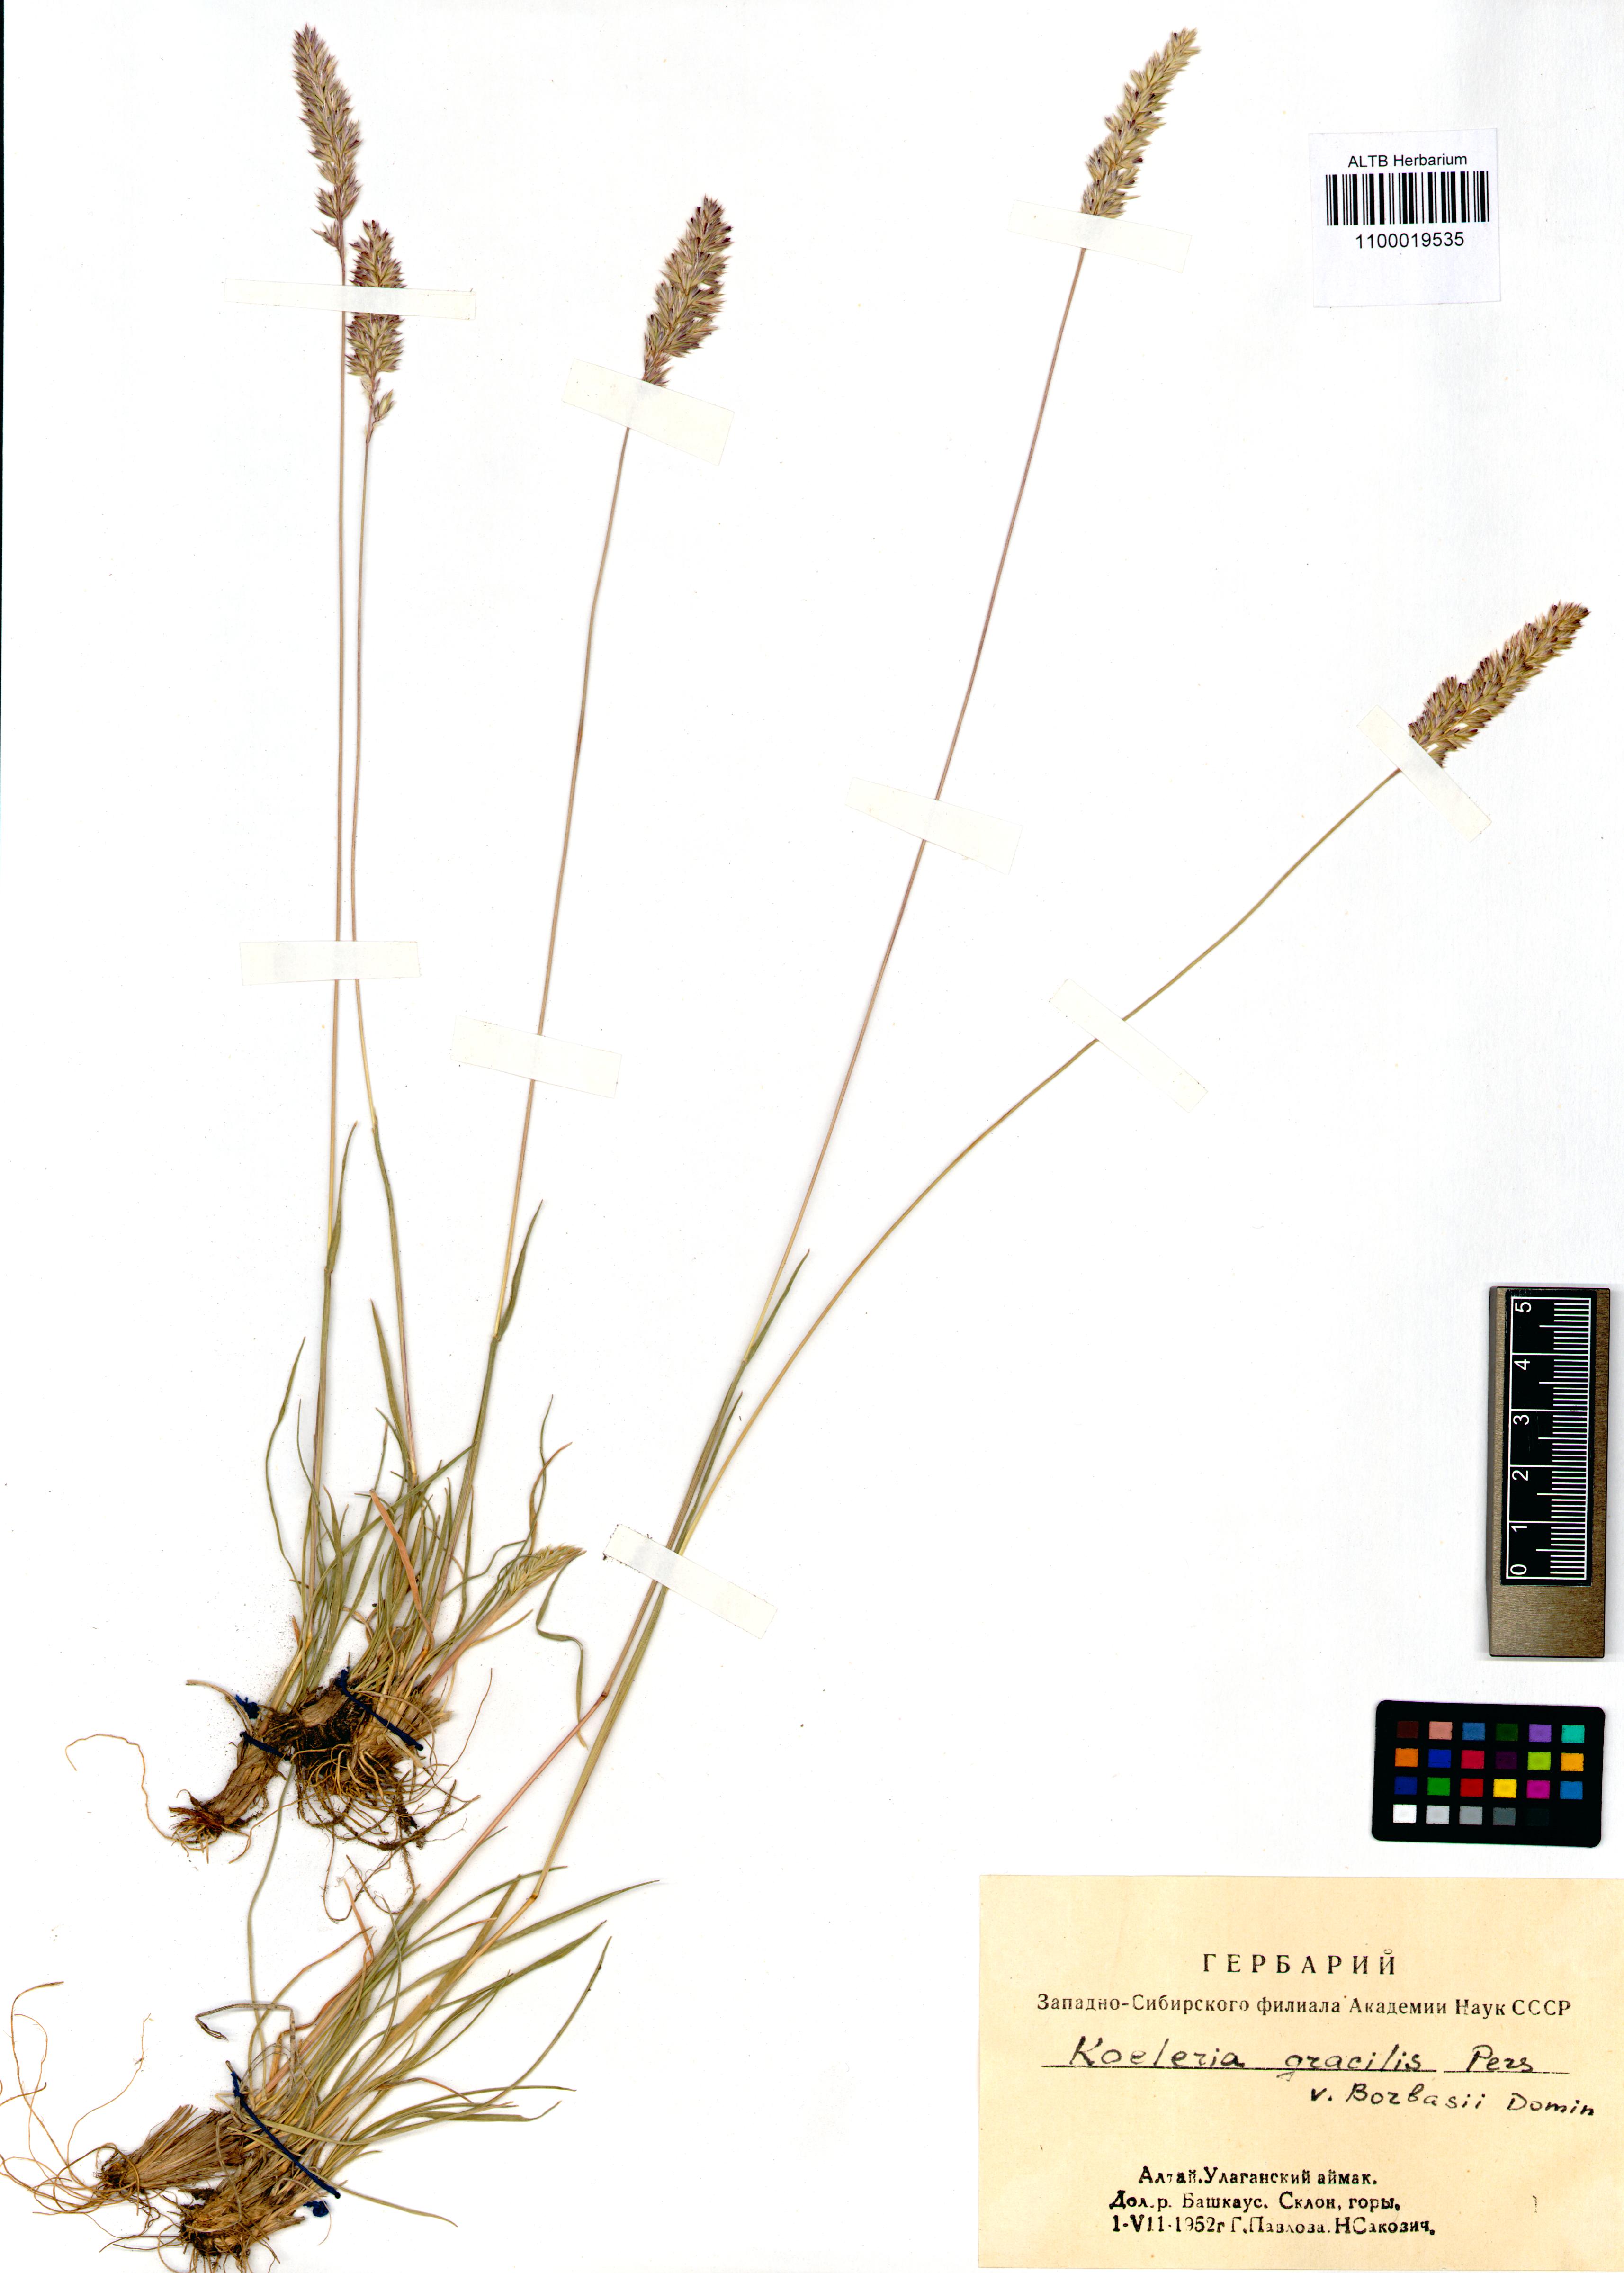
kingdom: Plantae
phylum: Tracheophyta
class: Liliopsida
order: Poales
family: Poaceae
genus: Koeleria
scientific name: Koeleria macrantha
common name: Crested hair-grass
